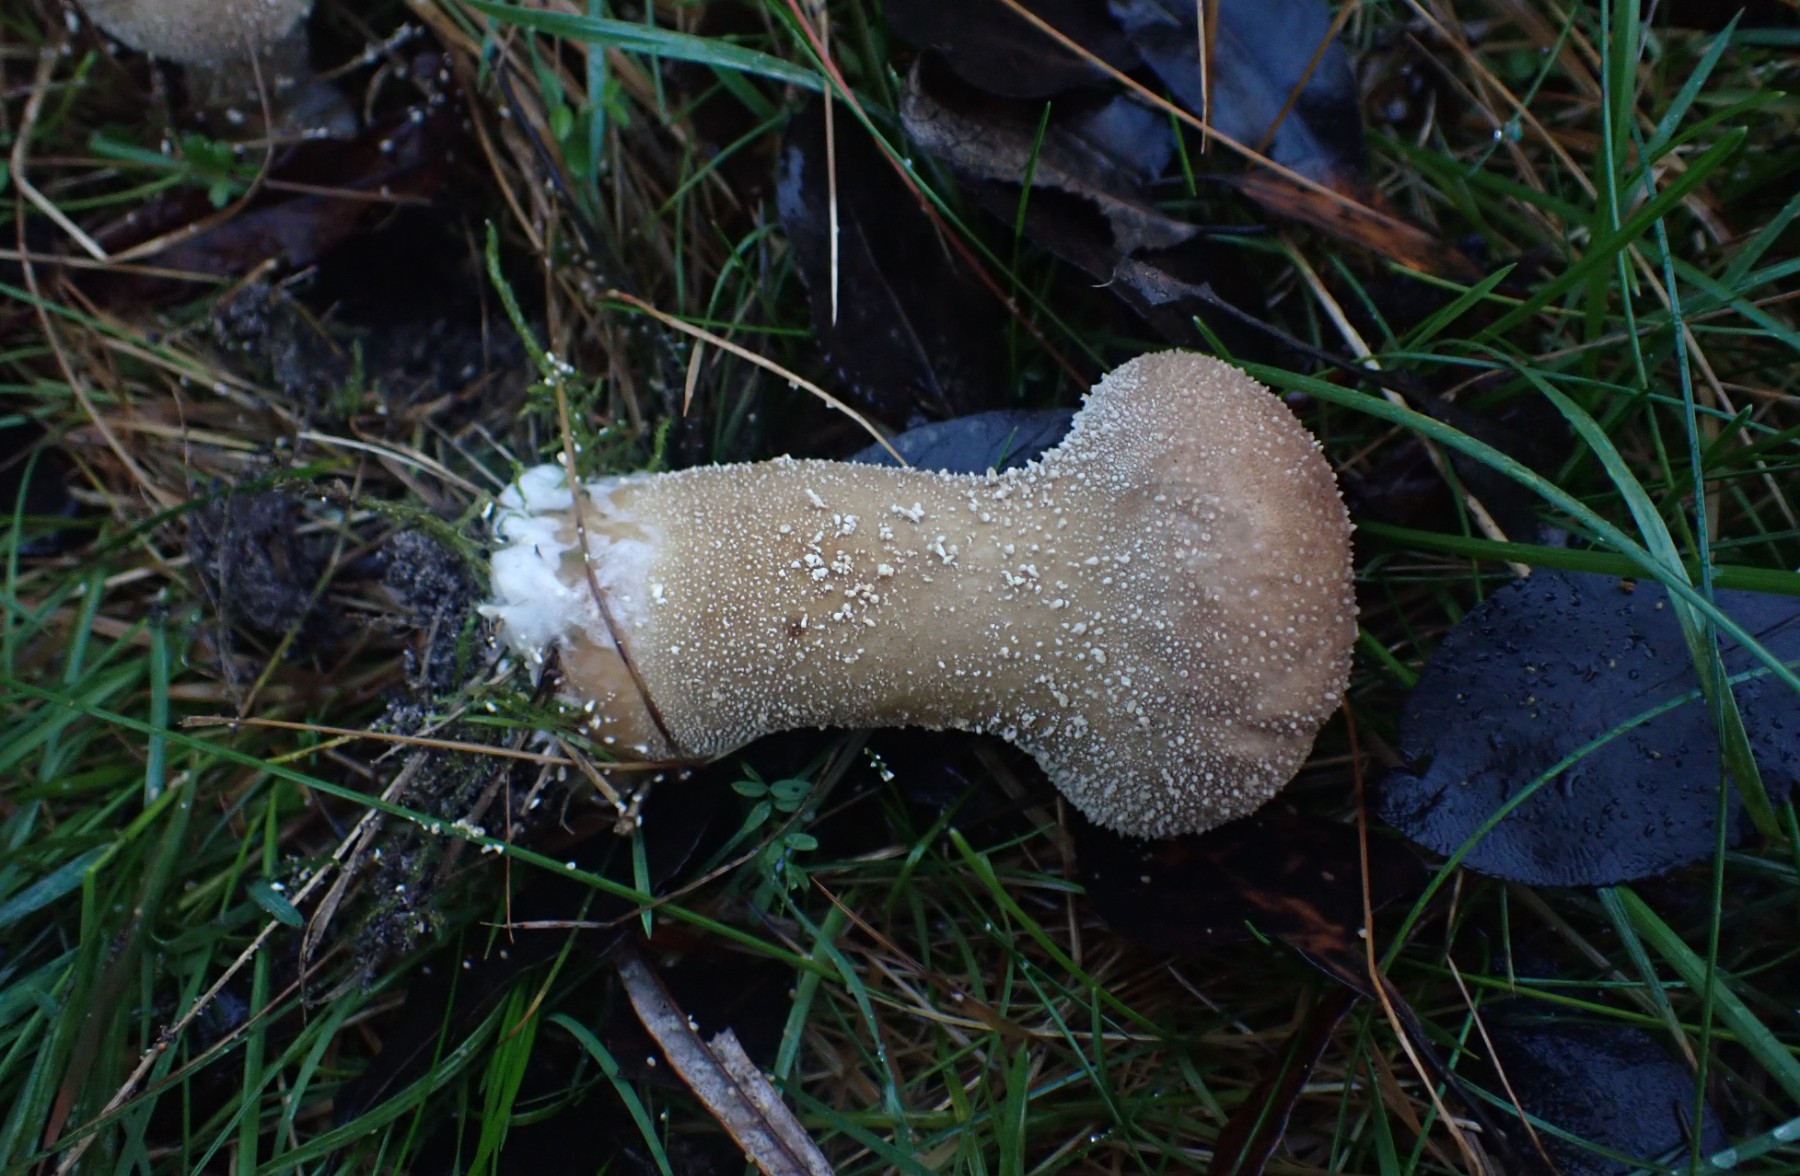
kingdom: Fungi
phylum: Basidiomycota
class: Agaricomycetes
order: Agaricales
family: Lycoperdaceae
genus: Lycoperdon
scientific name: Lycoperdon excipuliforme
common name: højstokket støvbold
